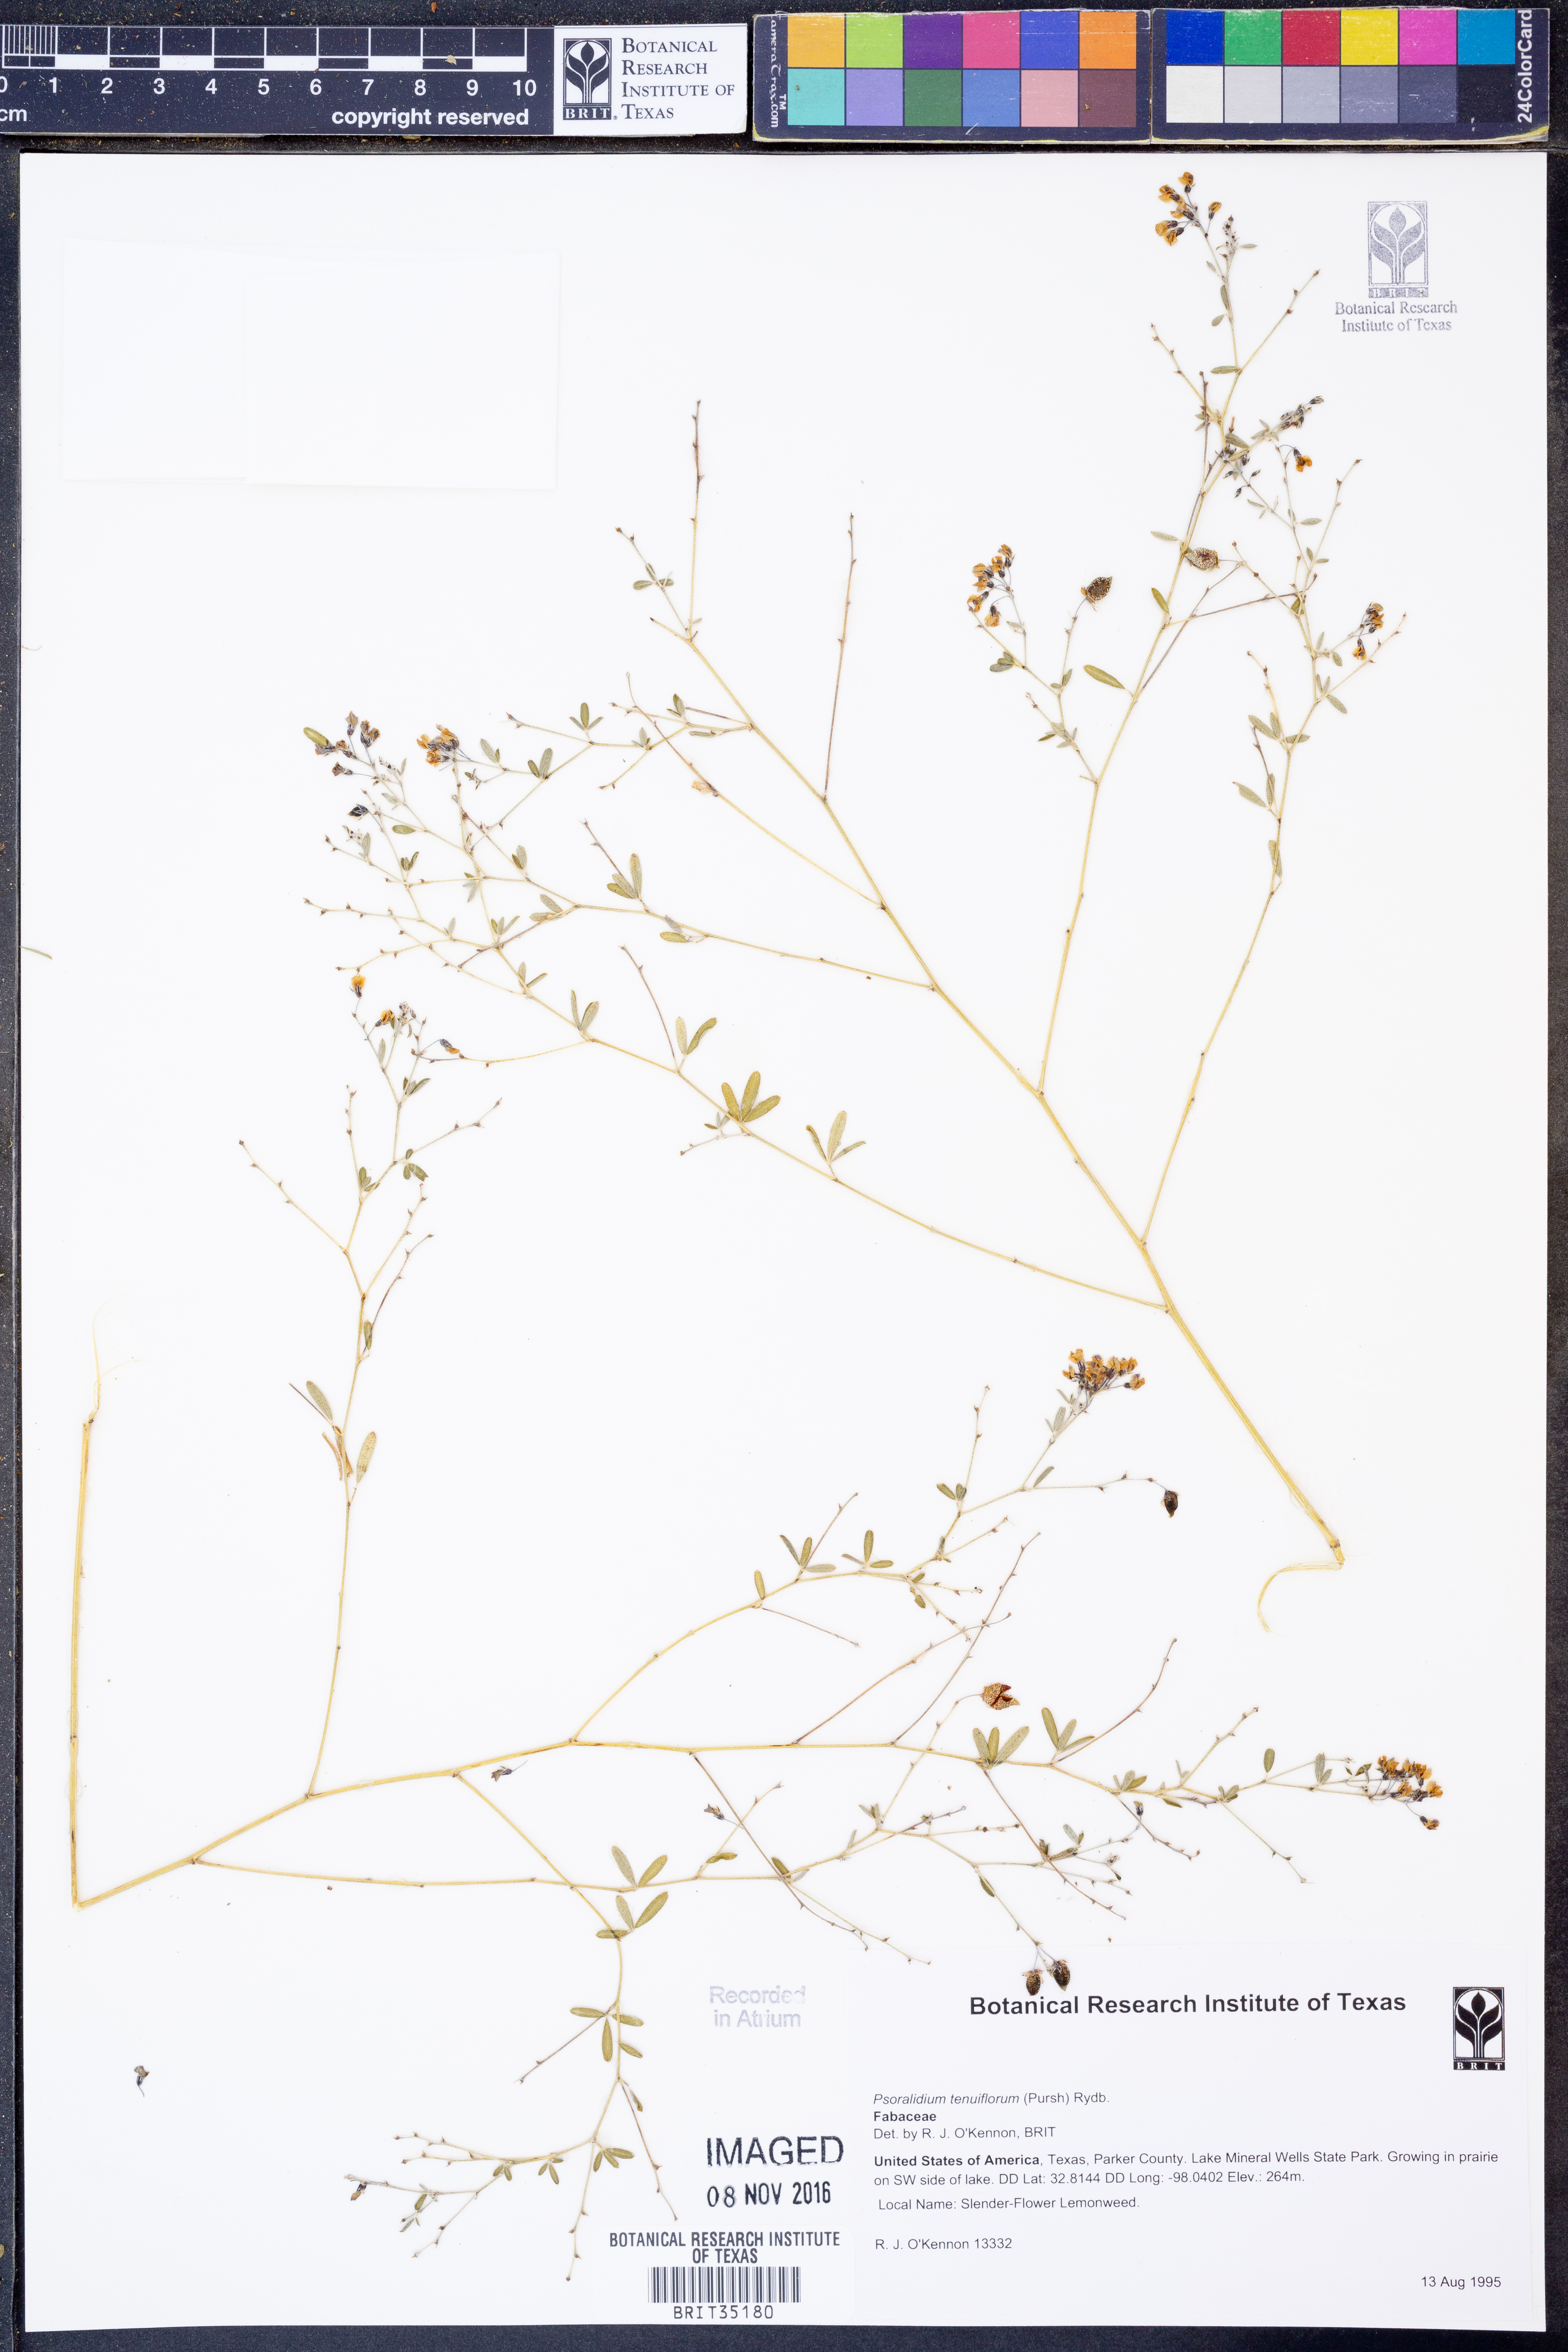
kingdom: Plantae
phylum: Tracheophyta
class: Magnoliopsida
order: Fabales
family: Fabaceae
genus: Pediomelum
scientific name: Pediomelum tenuiflorum
